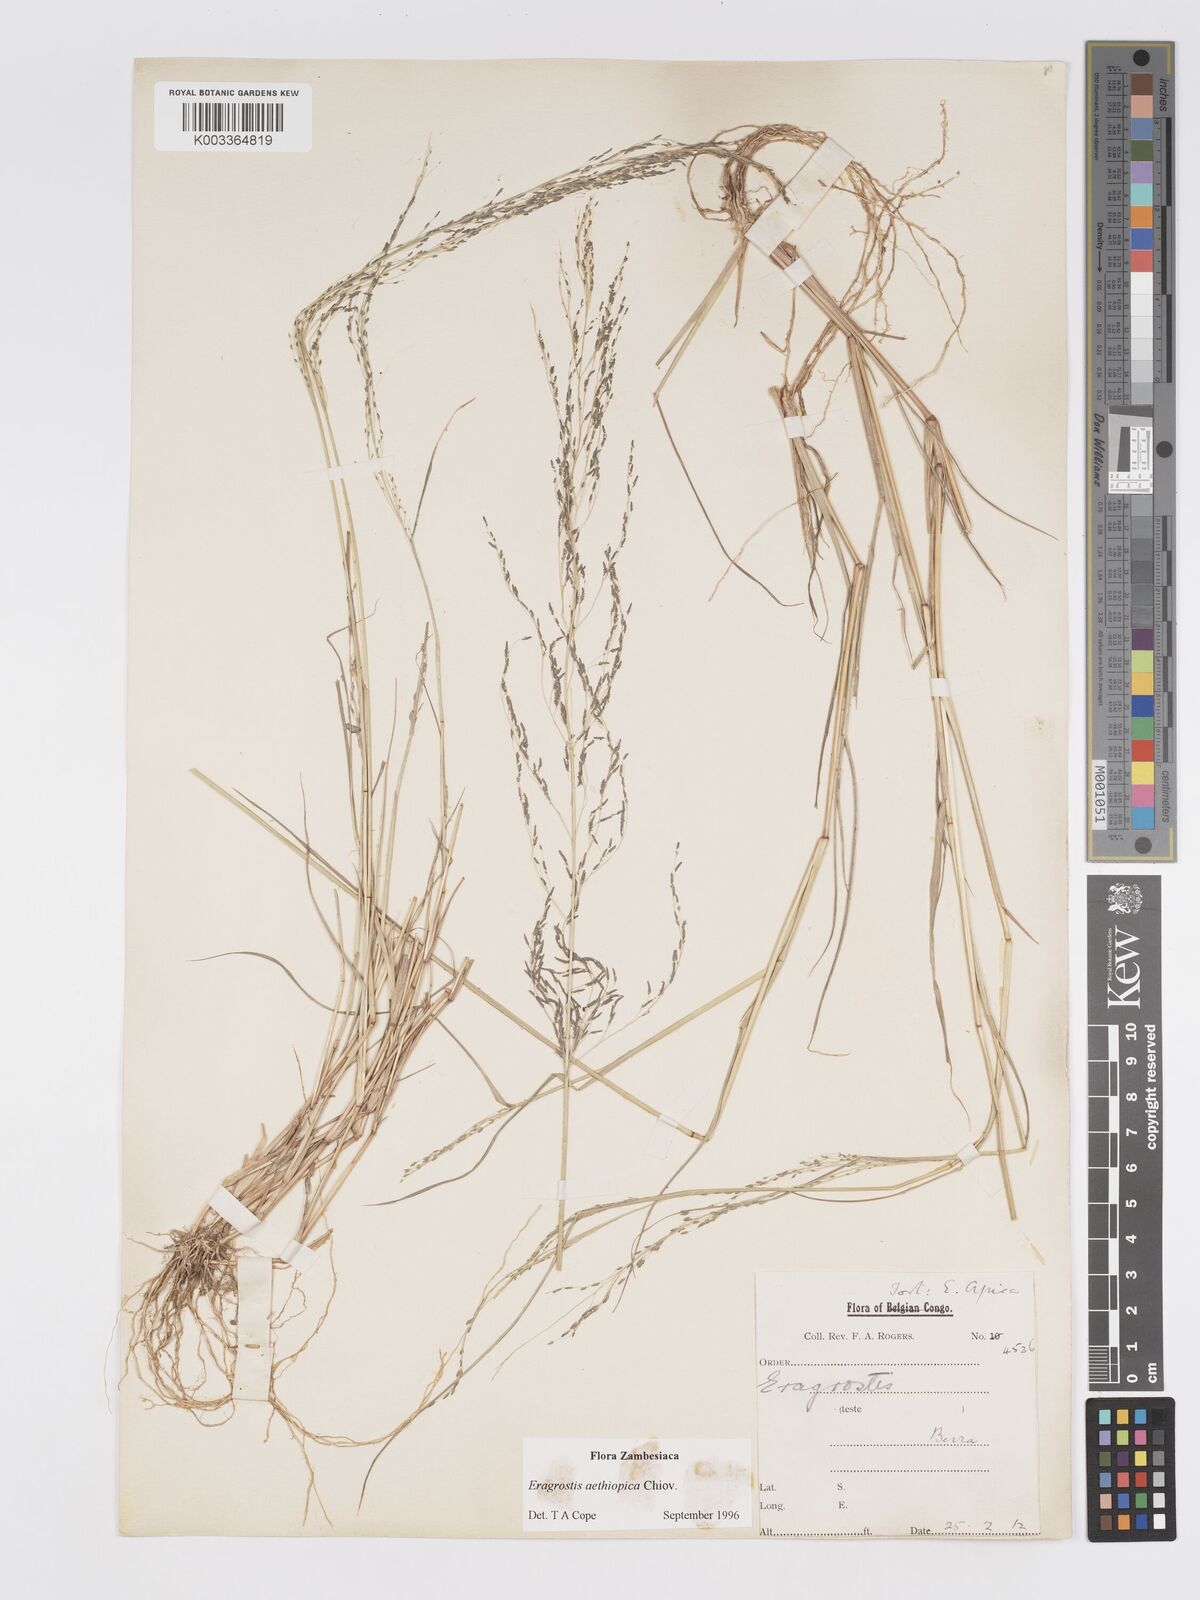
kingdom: Plantae
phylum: Tracheophyta
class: Liliopsida
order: Poales
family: Poaceae
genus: Eragrostis
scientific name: Eragrostis aethiopica
